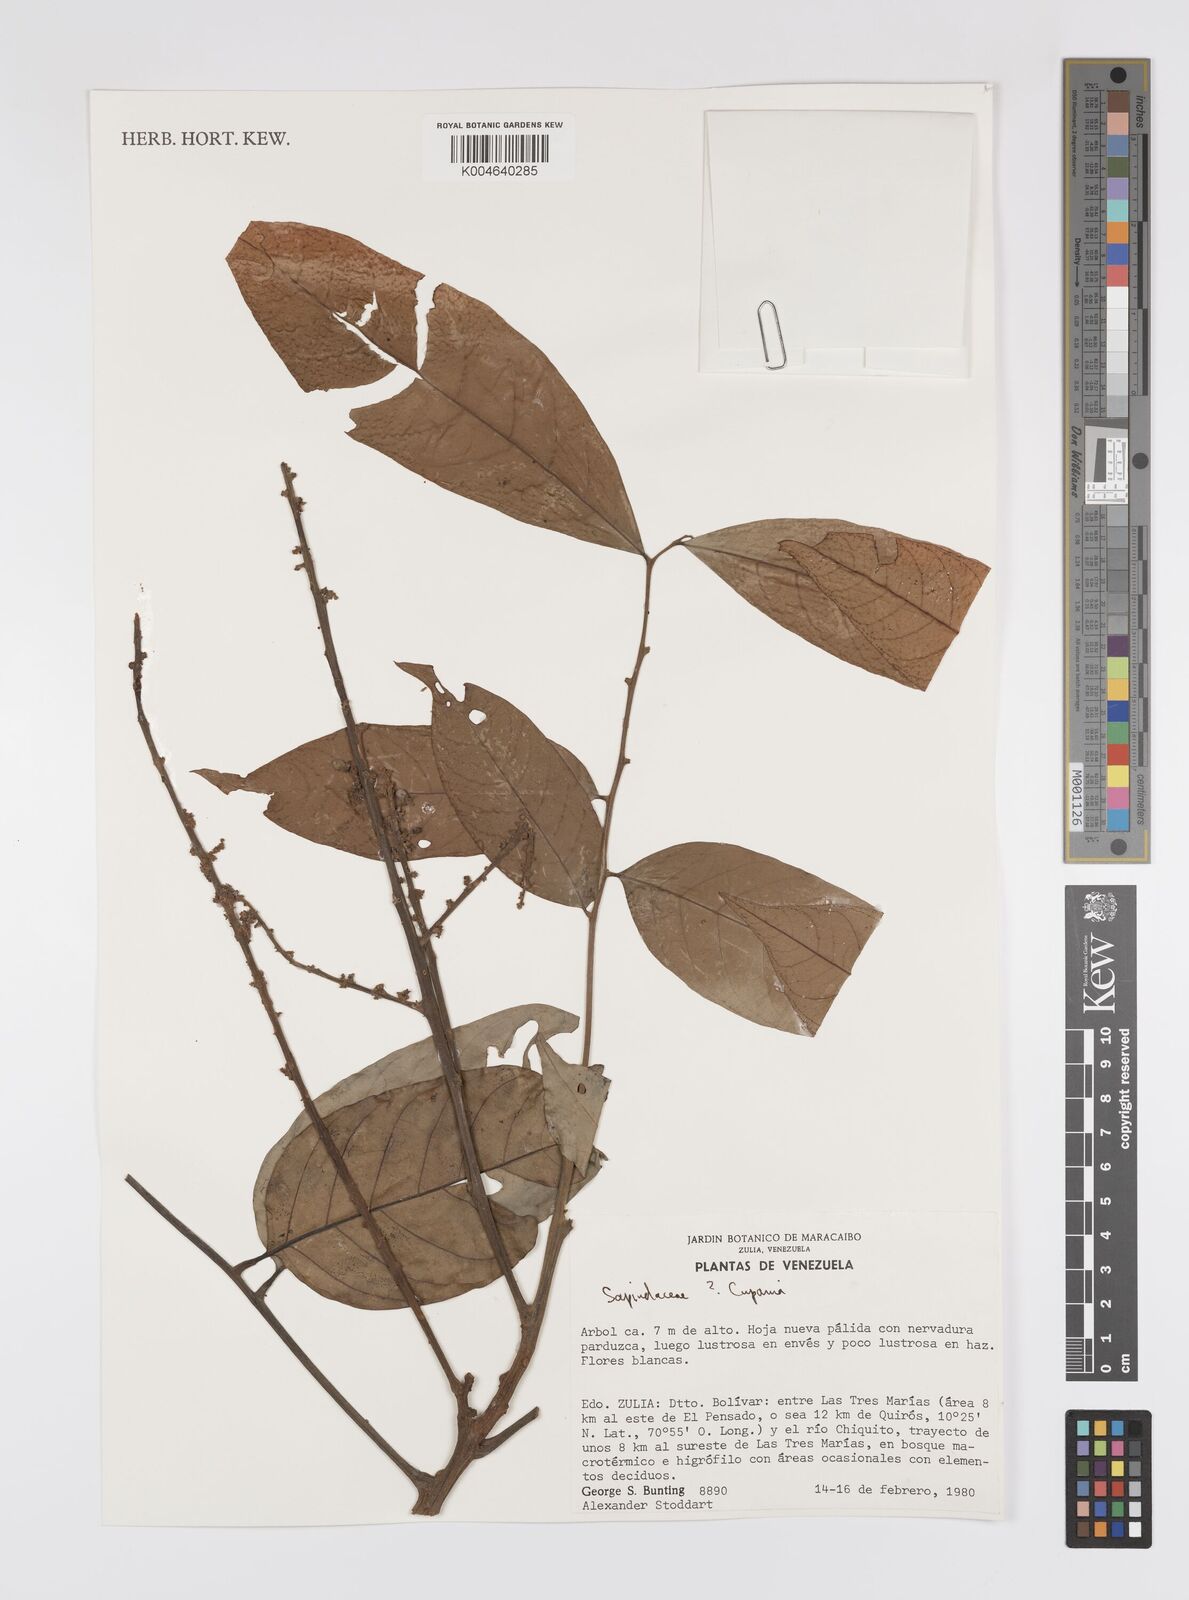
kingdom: Plantae
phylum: Tracheophyta
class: Magnoliopsida
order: Sapindales
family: Sapindaceae
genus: Cupania
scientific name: Cupania
